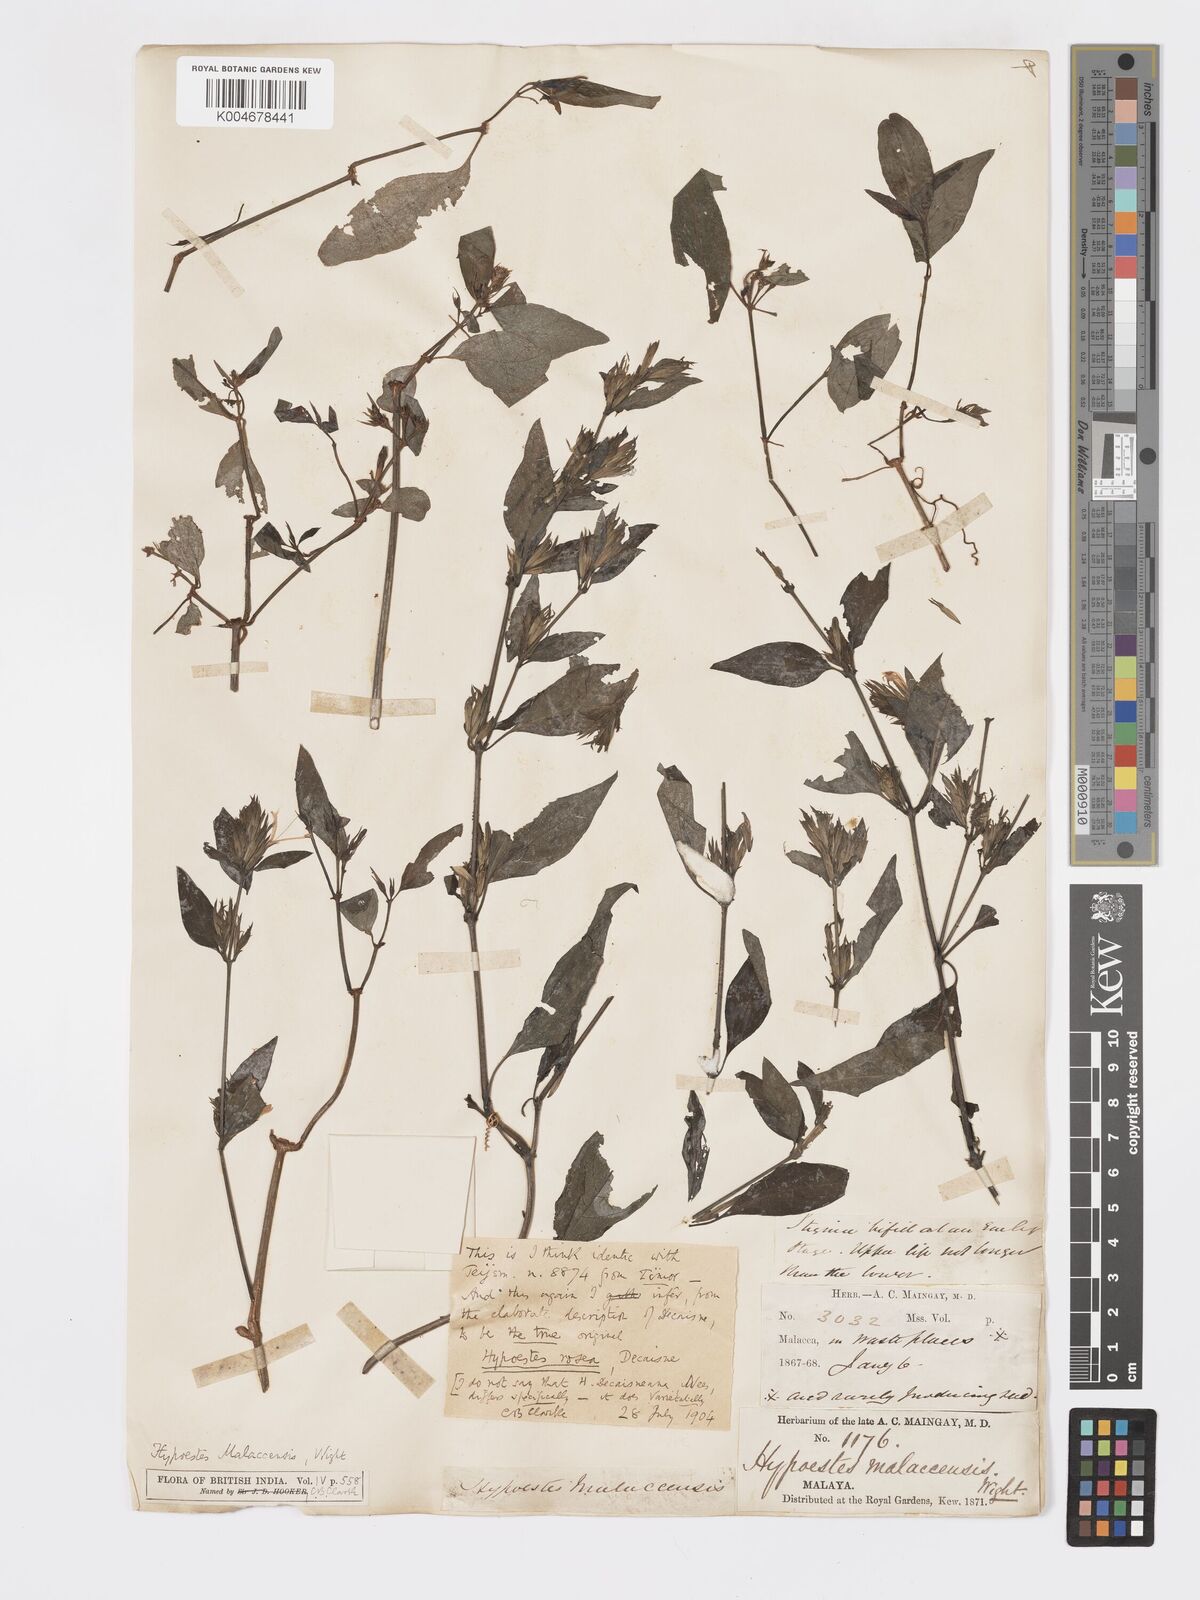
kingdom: Plantae
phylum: Tracheophyta
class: Magnoliopsida
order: Lamiales
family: Acanthaceae
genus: Hypoestes
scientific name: Hypoestes
